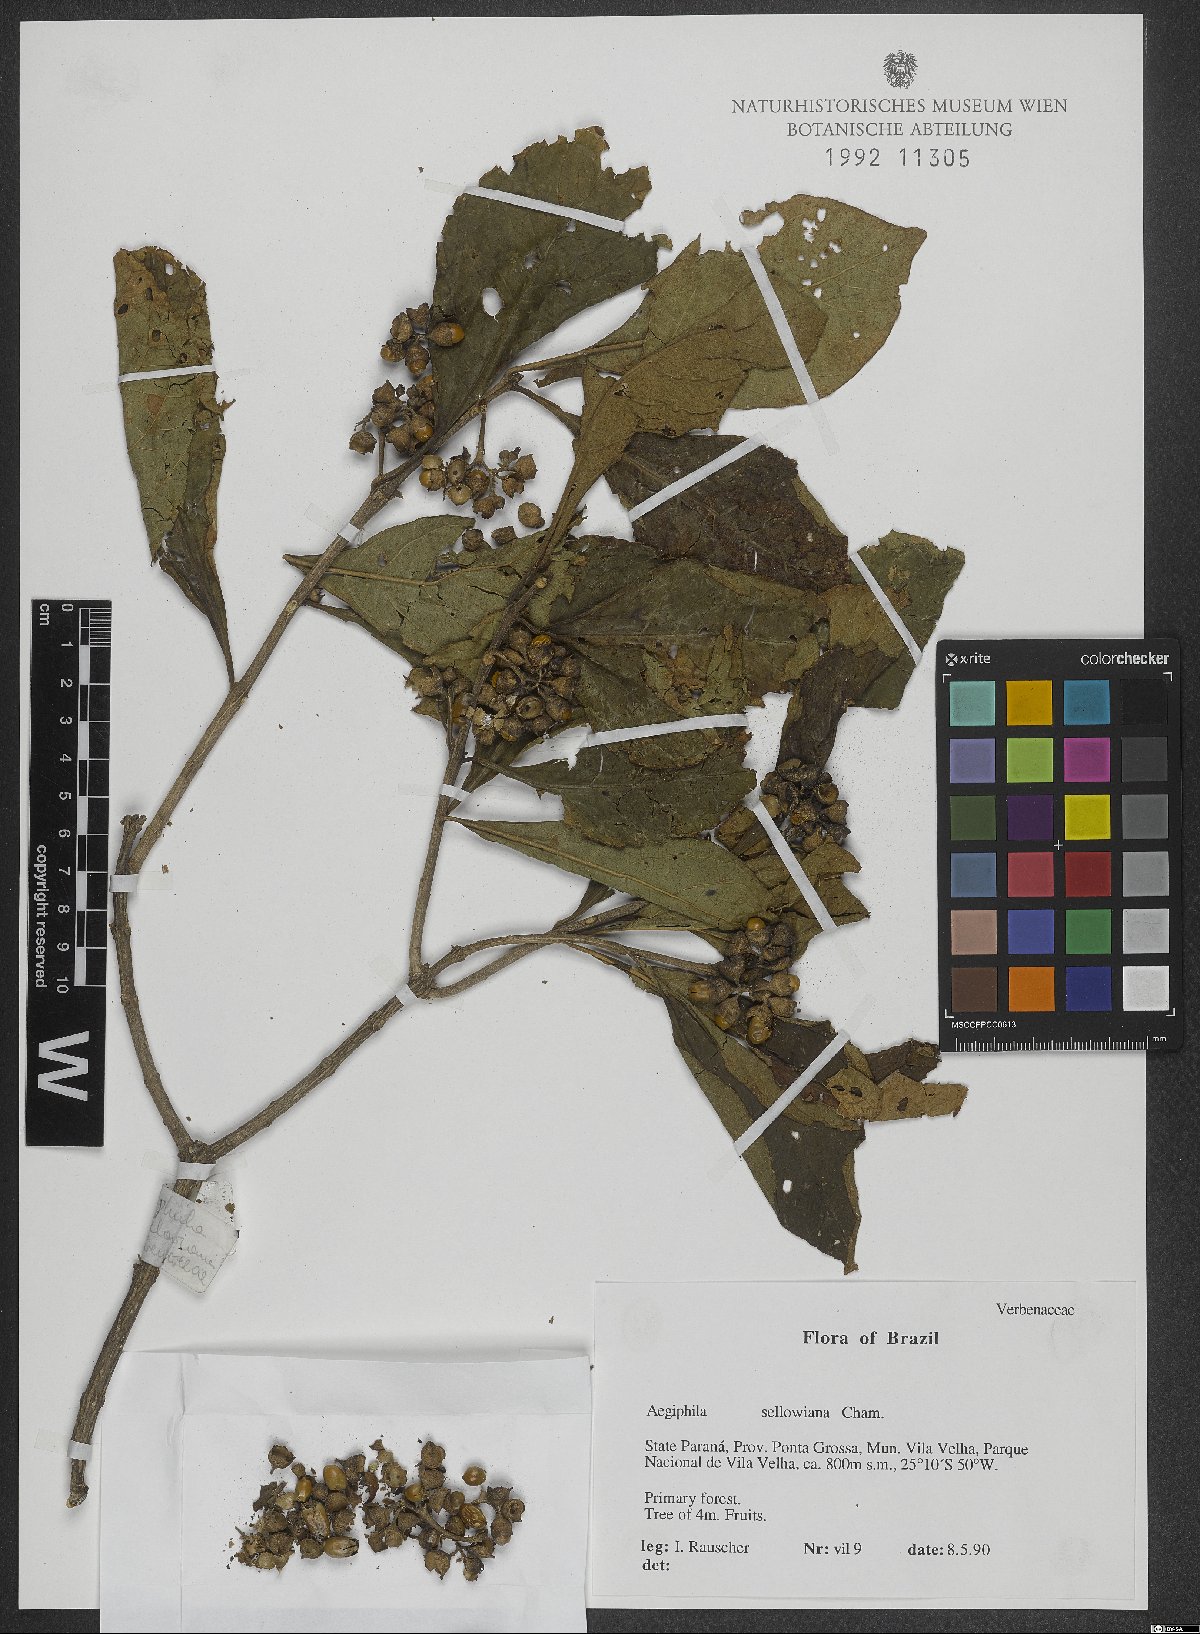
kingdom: Plantae
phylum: Tracheophyta
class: Magnoliopsida
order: Lamiales
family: Lamiaceae
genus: Aegiphila
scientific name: Aegiphila verticillata
